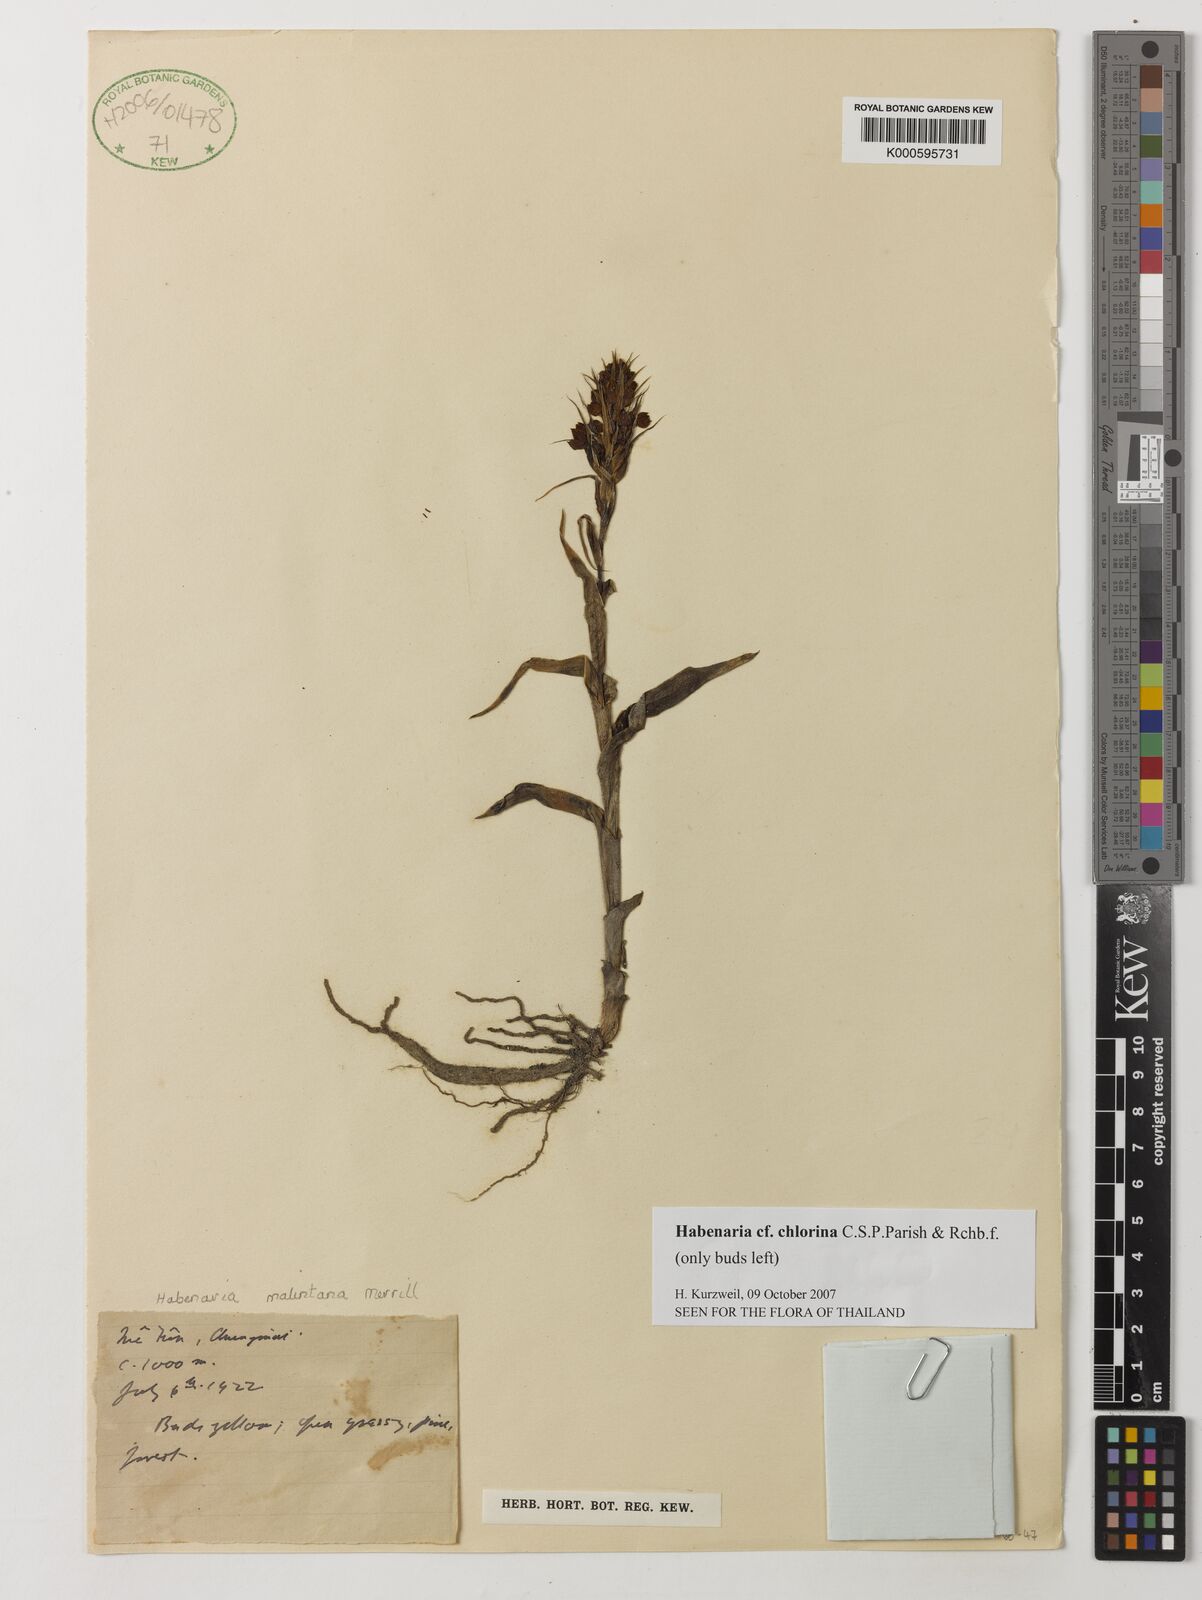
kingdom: Plantae
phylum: Tracheophyta
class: Liliopsida
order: Asparagales
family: Orchidaceae
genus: Habenaria
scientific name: Habenaria chlorina
